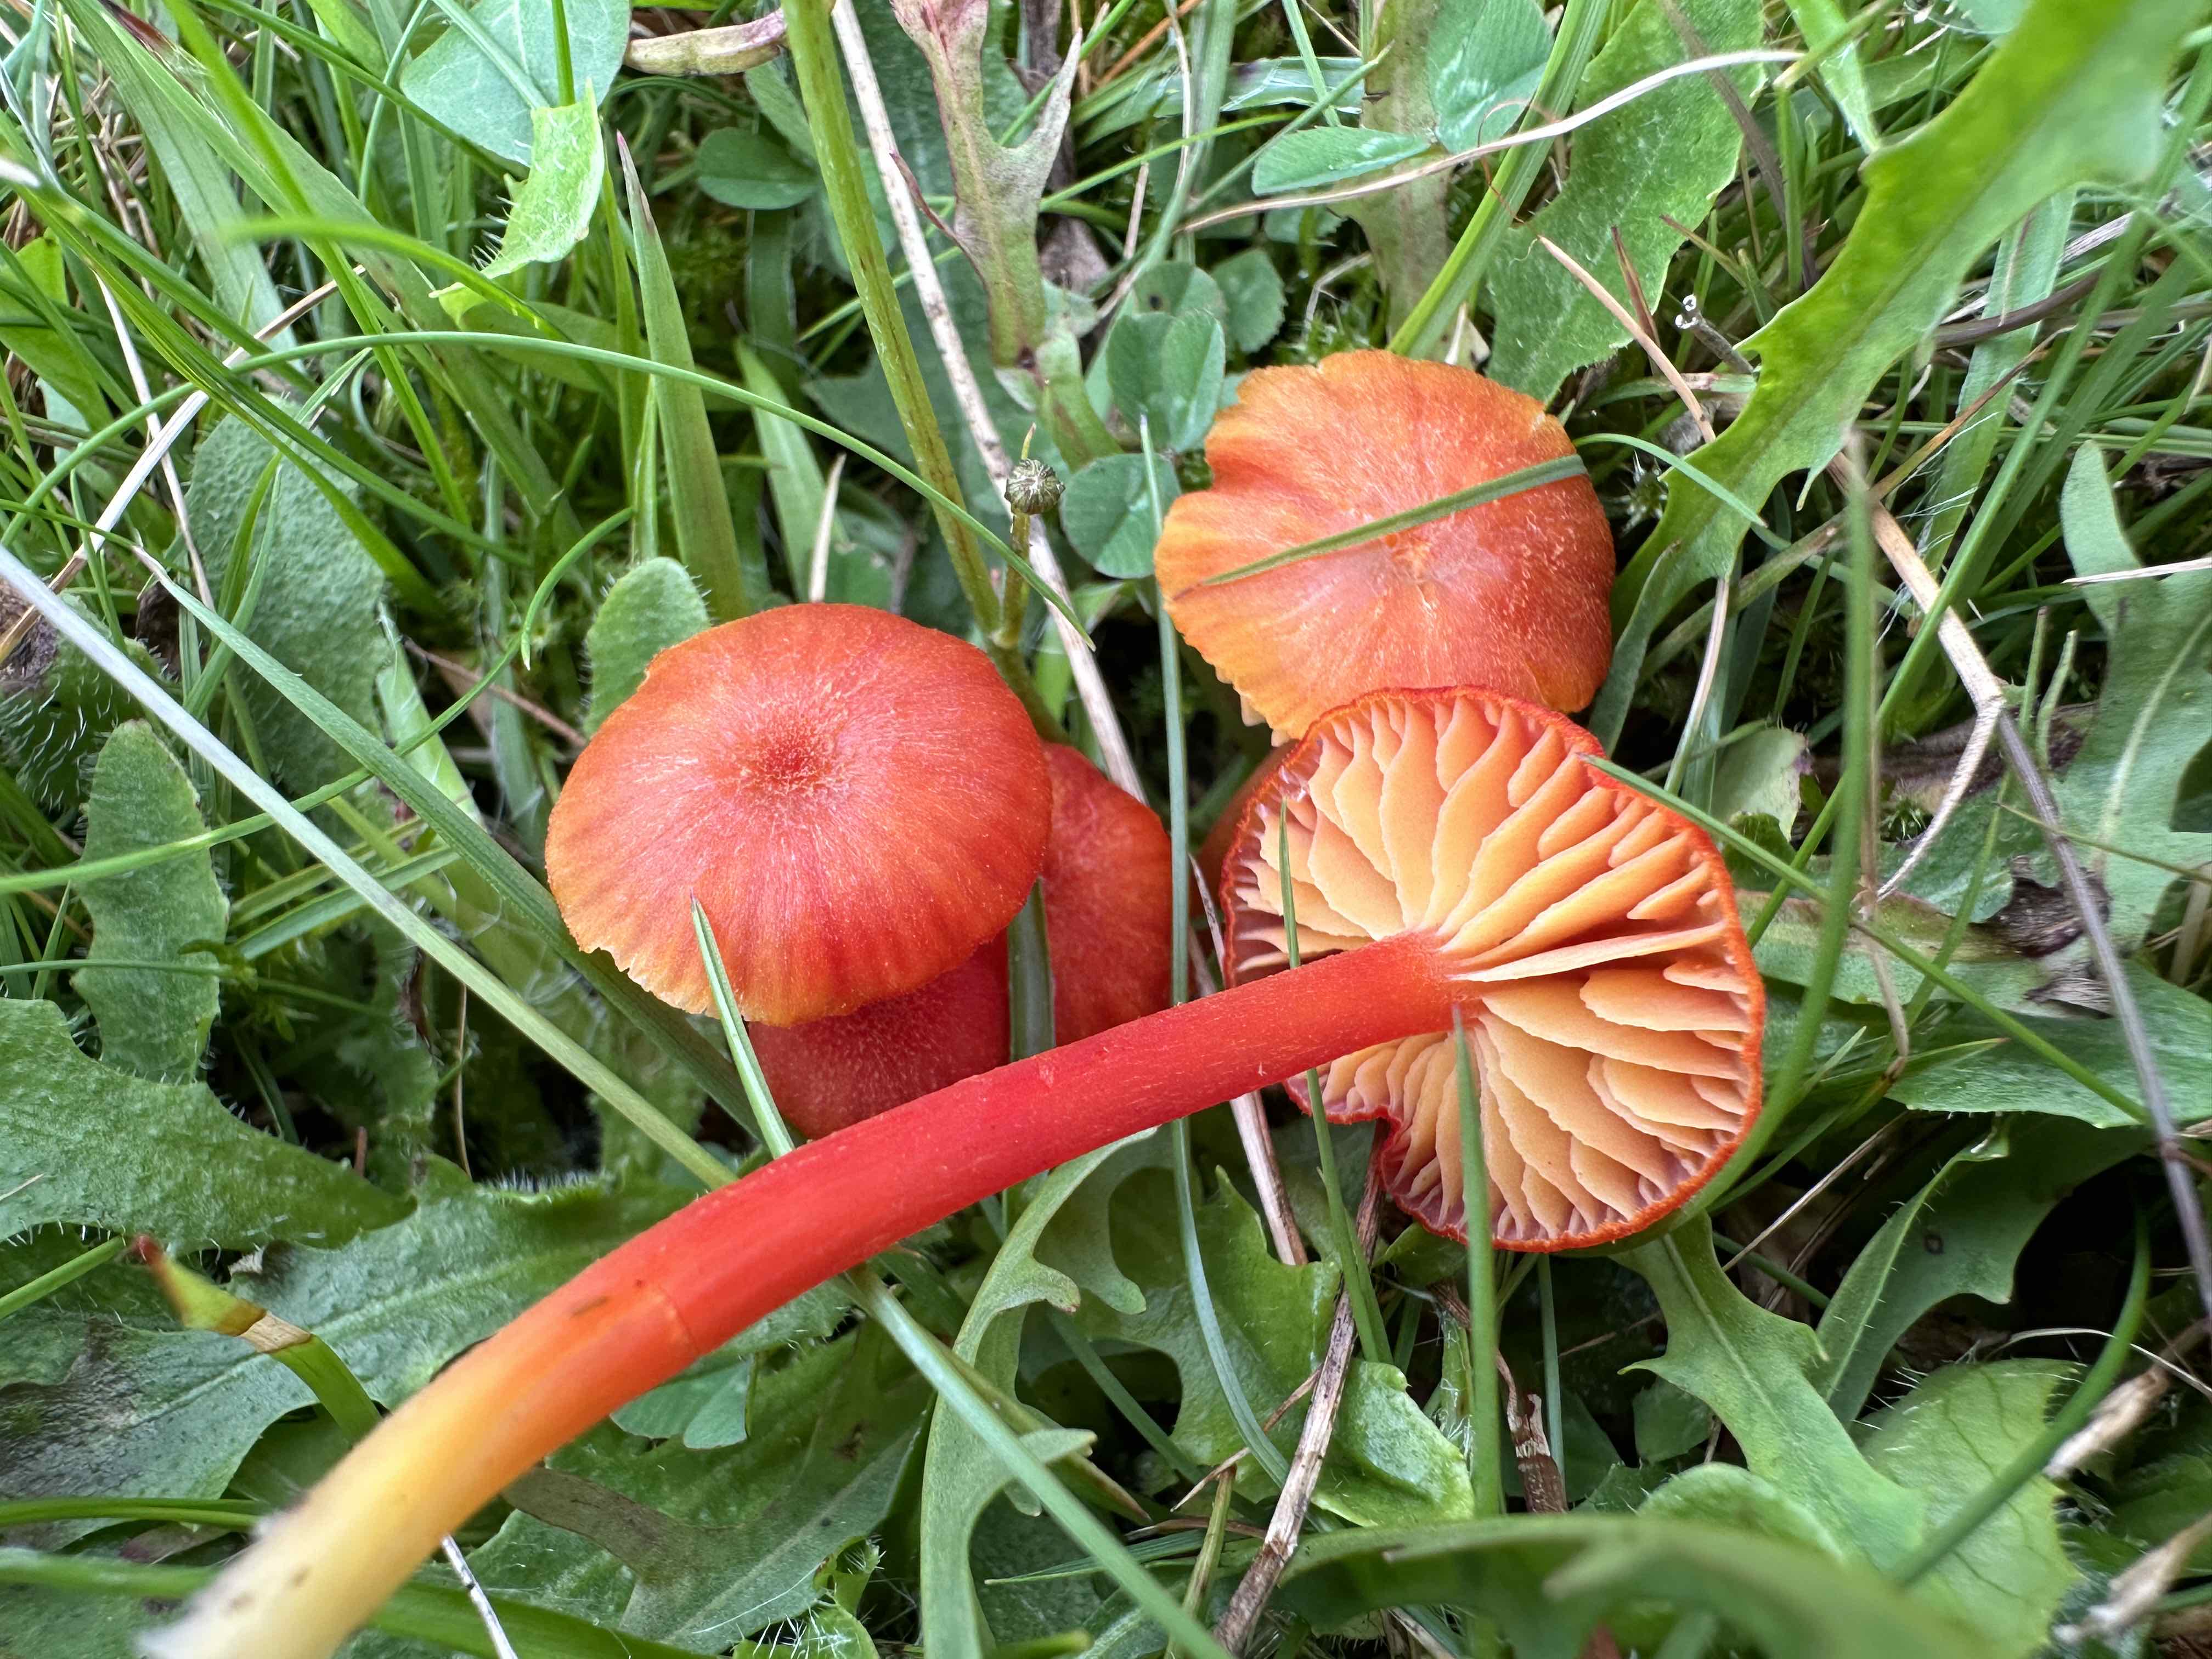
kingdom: Fungi
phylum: Basidiomycota
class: Agaricomycetes
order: Agaricales
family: Hygrophoraceae
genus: Hygrocybe
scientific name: Hygrocybe helobia
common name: hvidløgs-vokshat
